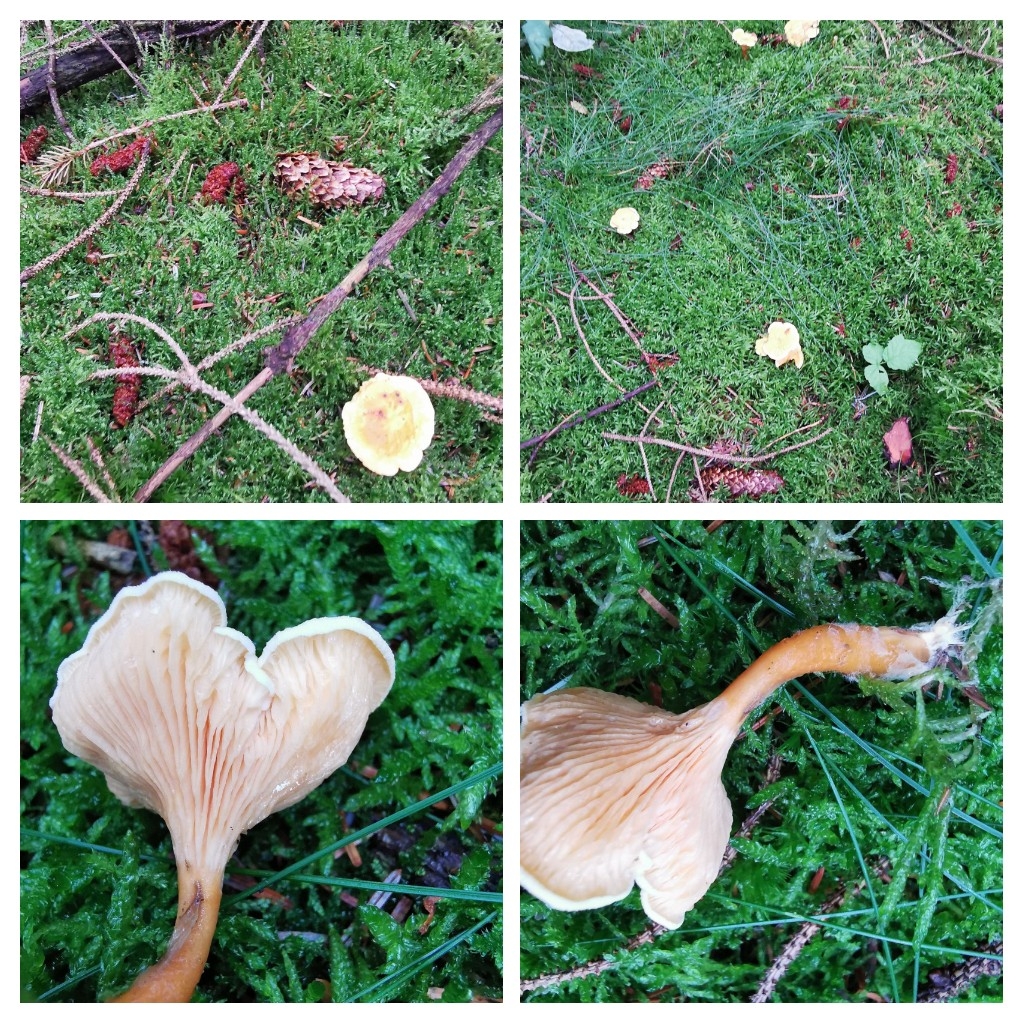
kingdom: Fungi
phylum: Basidiomycota
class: Agaricomycetes
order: Boletales
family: Hygrophoropsidaceae
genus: Hygrophoropsis
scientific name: Hygrophoropsis aurantiaca
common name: almindelig orangekantarel
